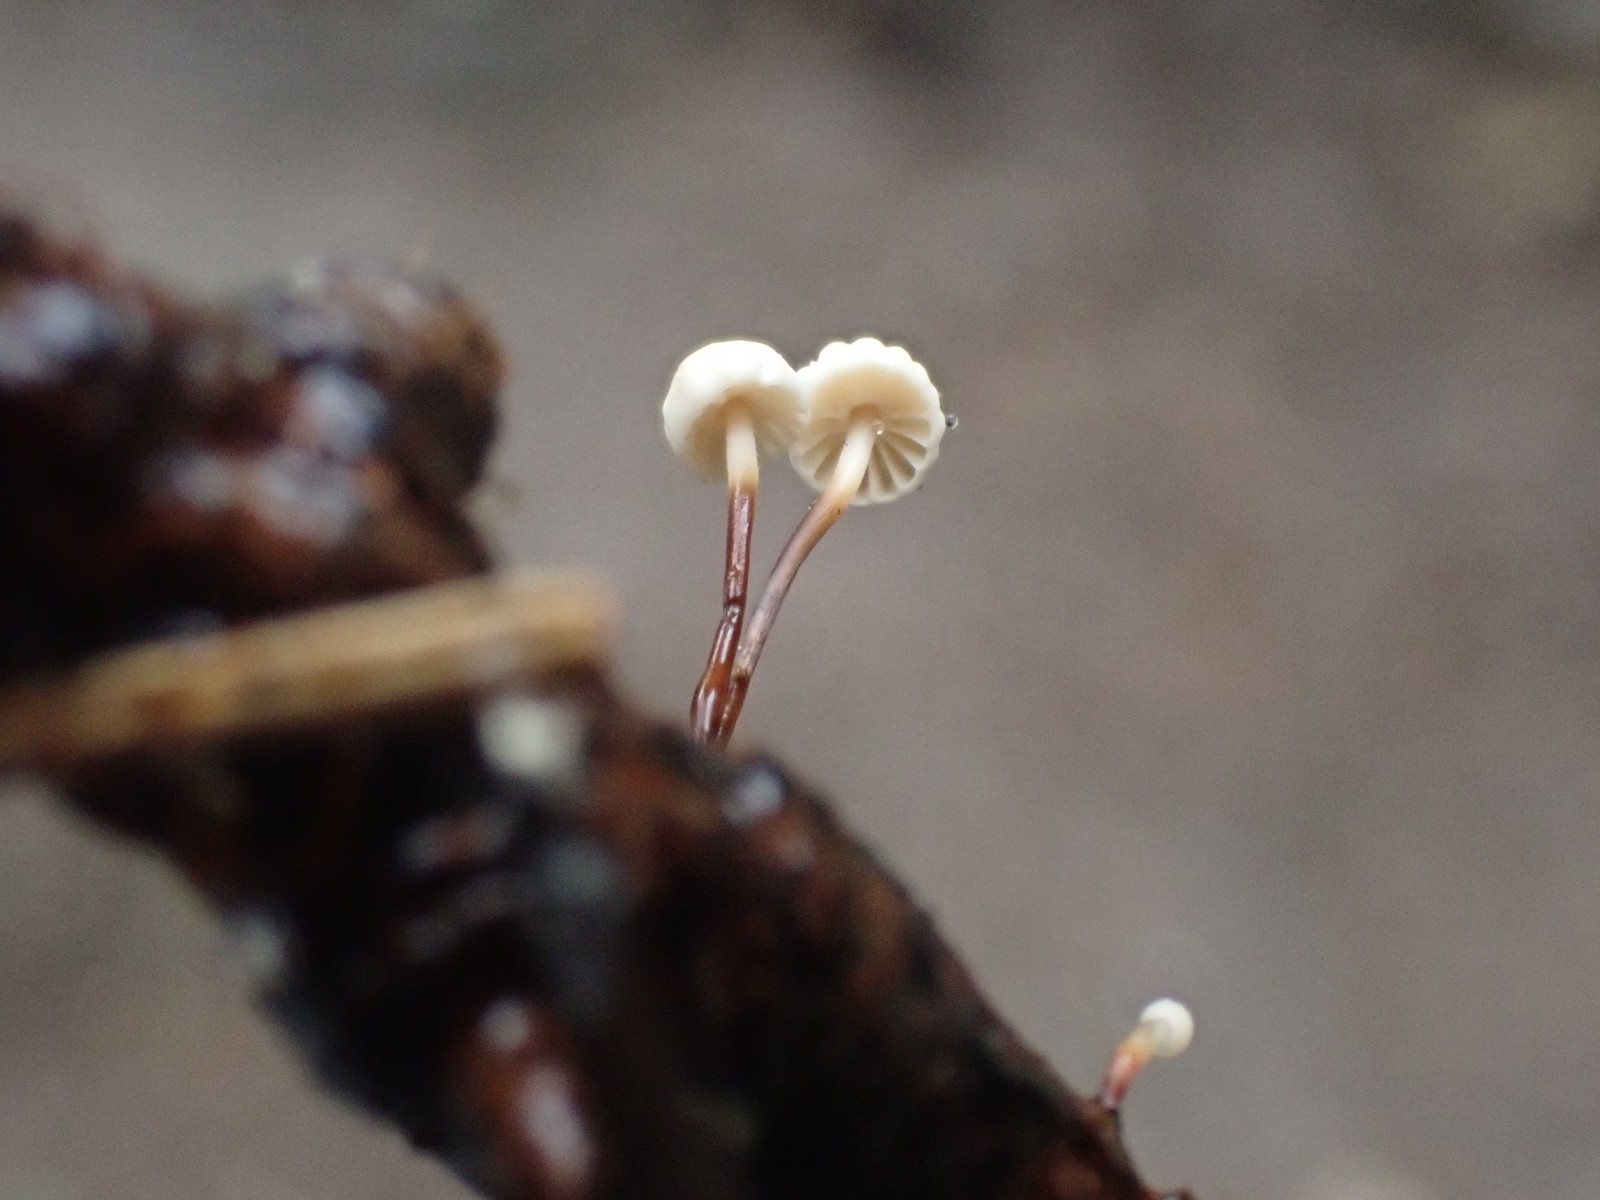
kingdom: Fungi
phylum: Basidiomycota
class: Agaricomycetes
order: Agaricales
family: Marasmiaceae
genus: Marasmius
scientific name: Marasmius rotula
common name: hjul-bruskhat
